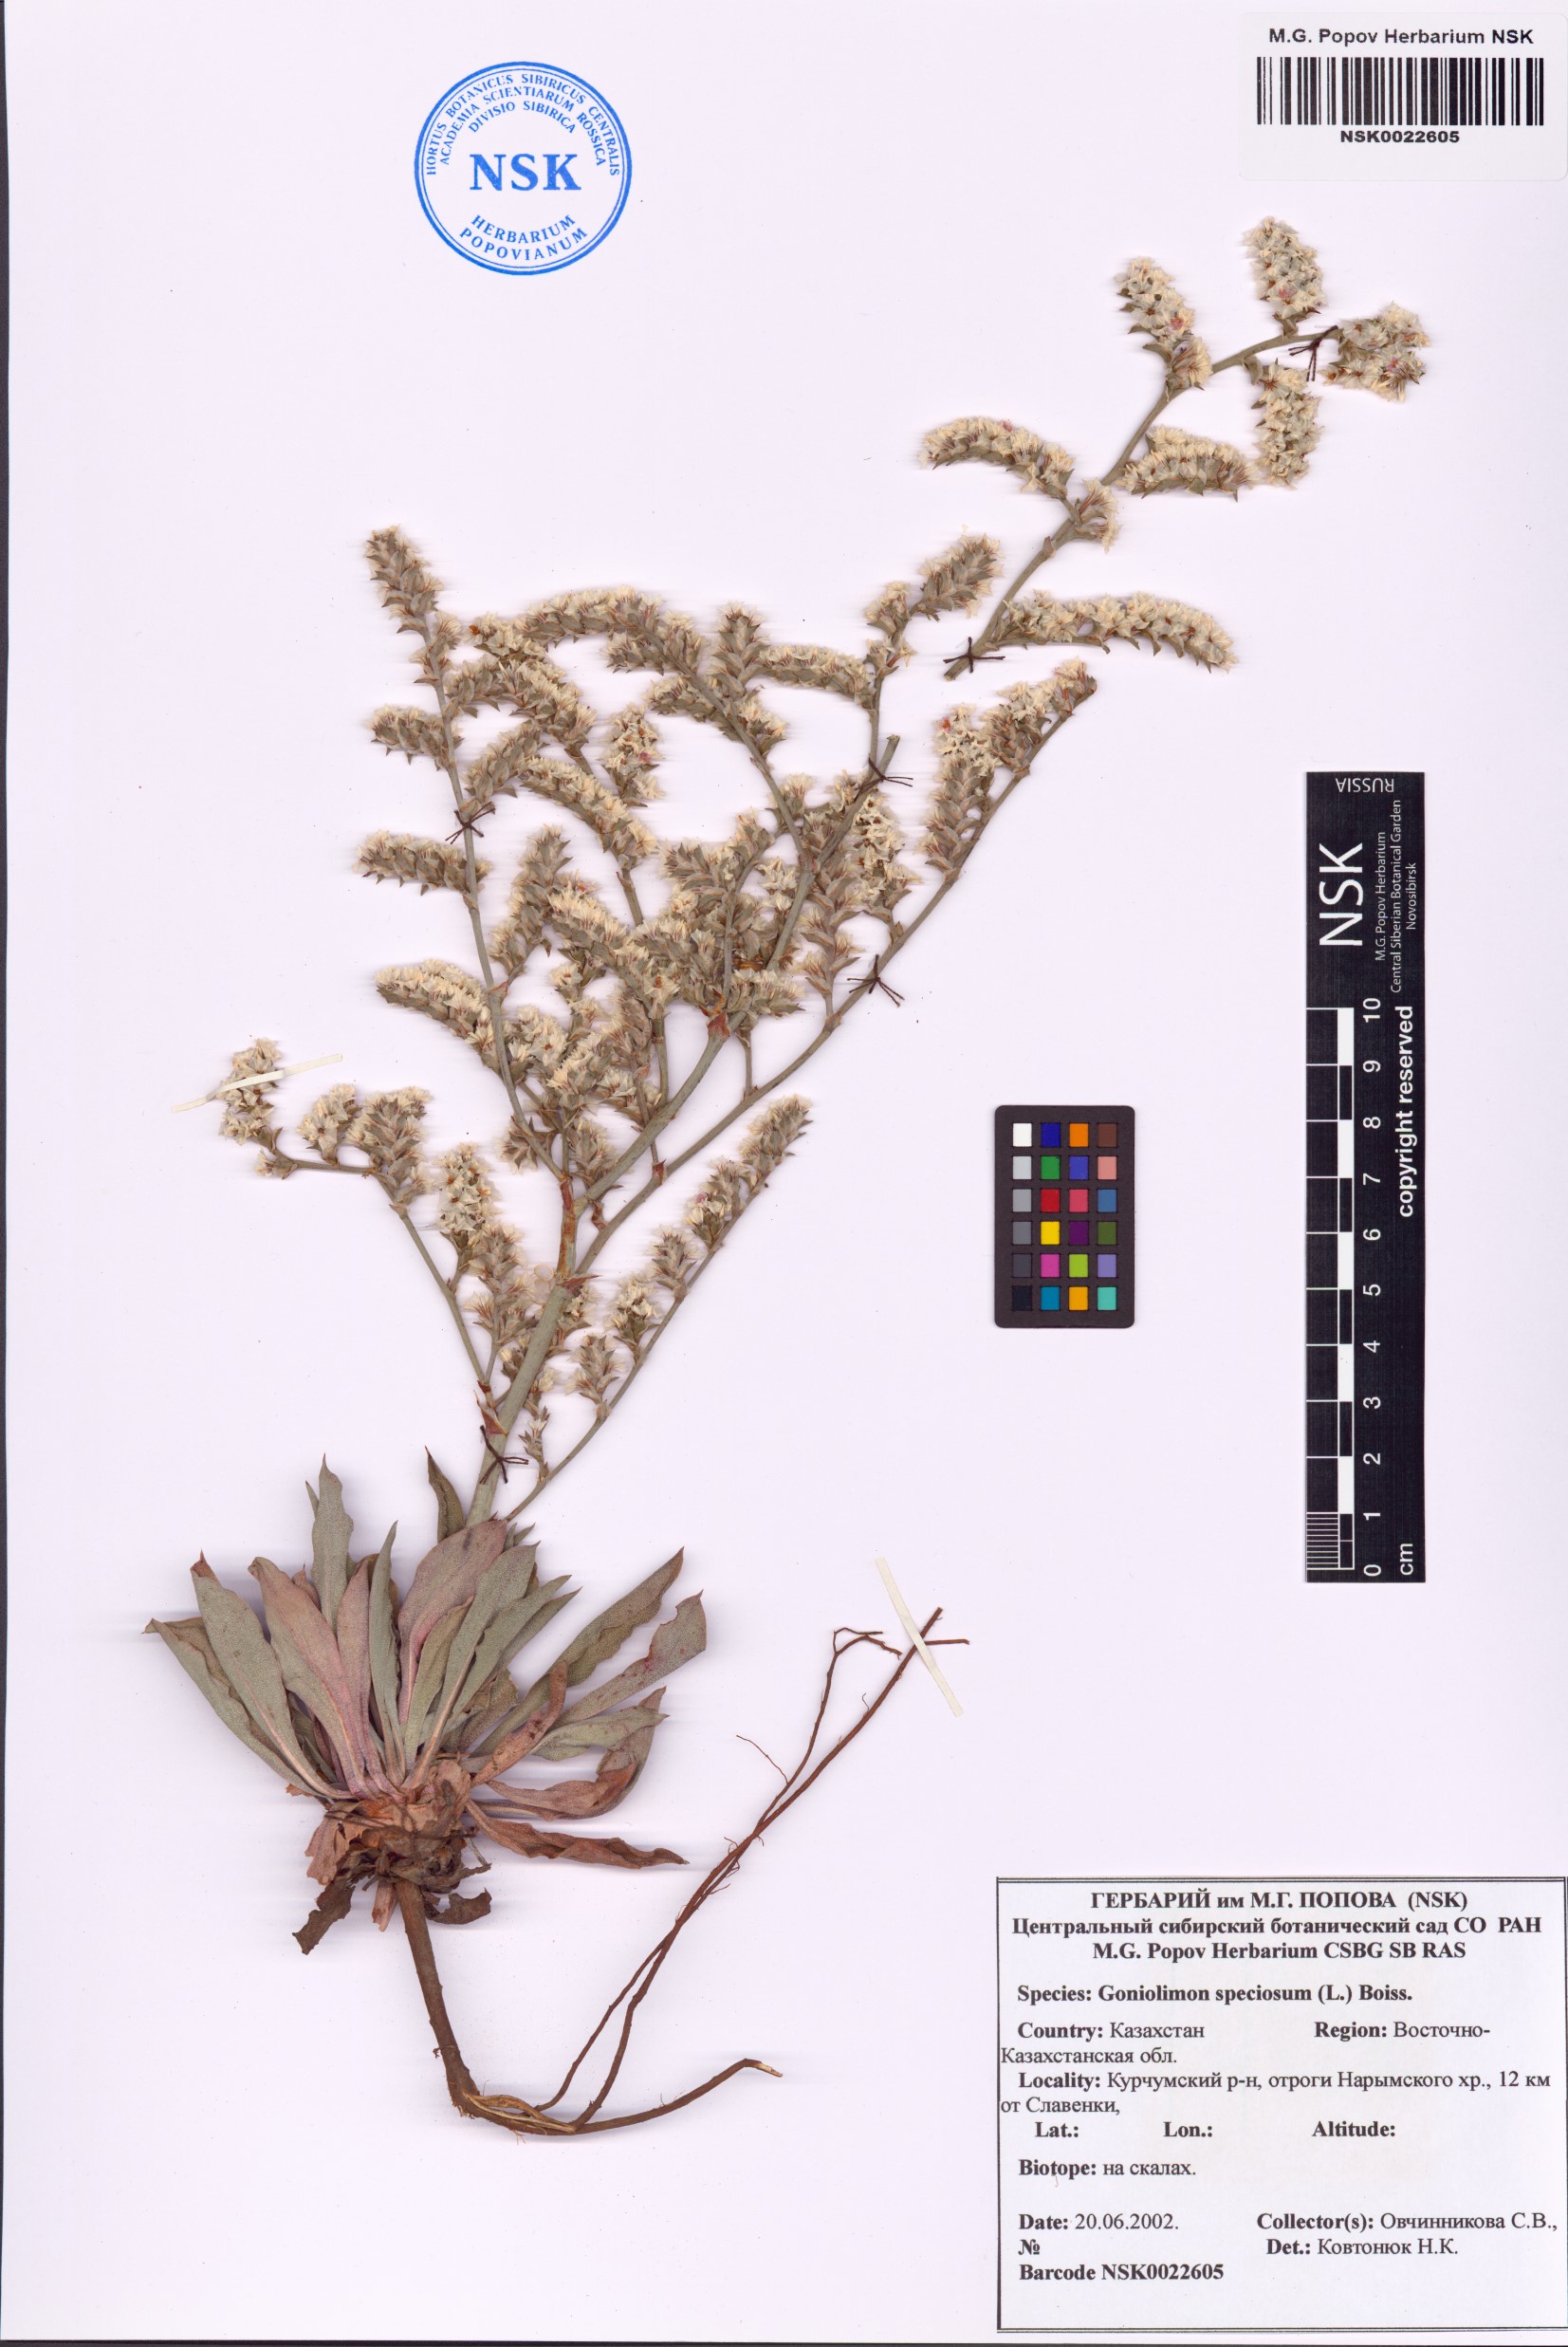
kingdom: Plantae
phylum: Tracheophyta
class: Magnoliopsida
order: Caryophyllales
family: Plumbaginaceae
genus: Goniolimon
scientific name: Goniolimon speciosum
